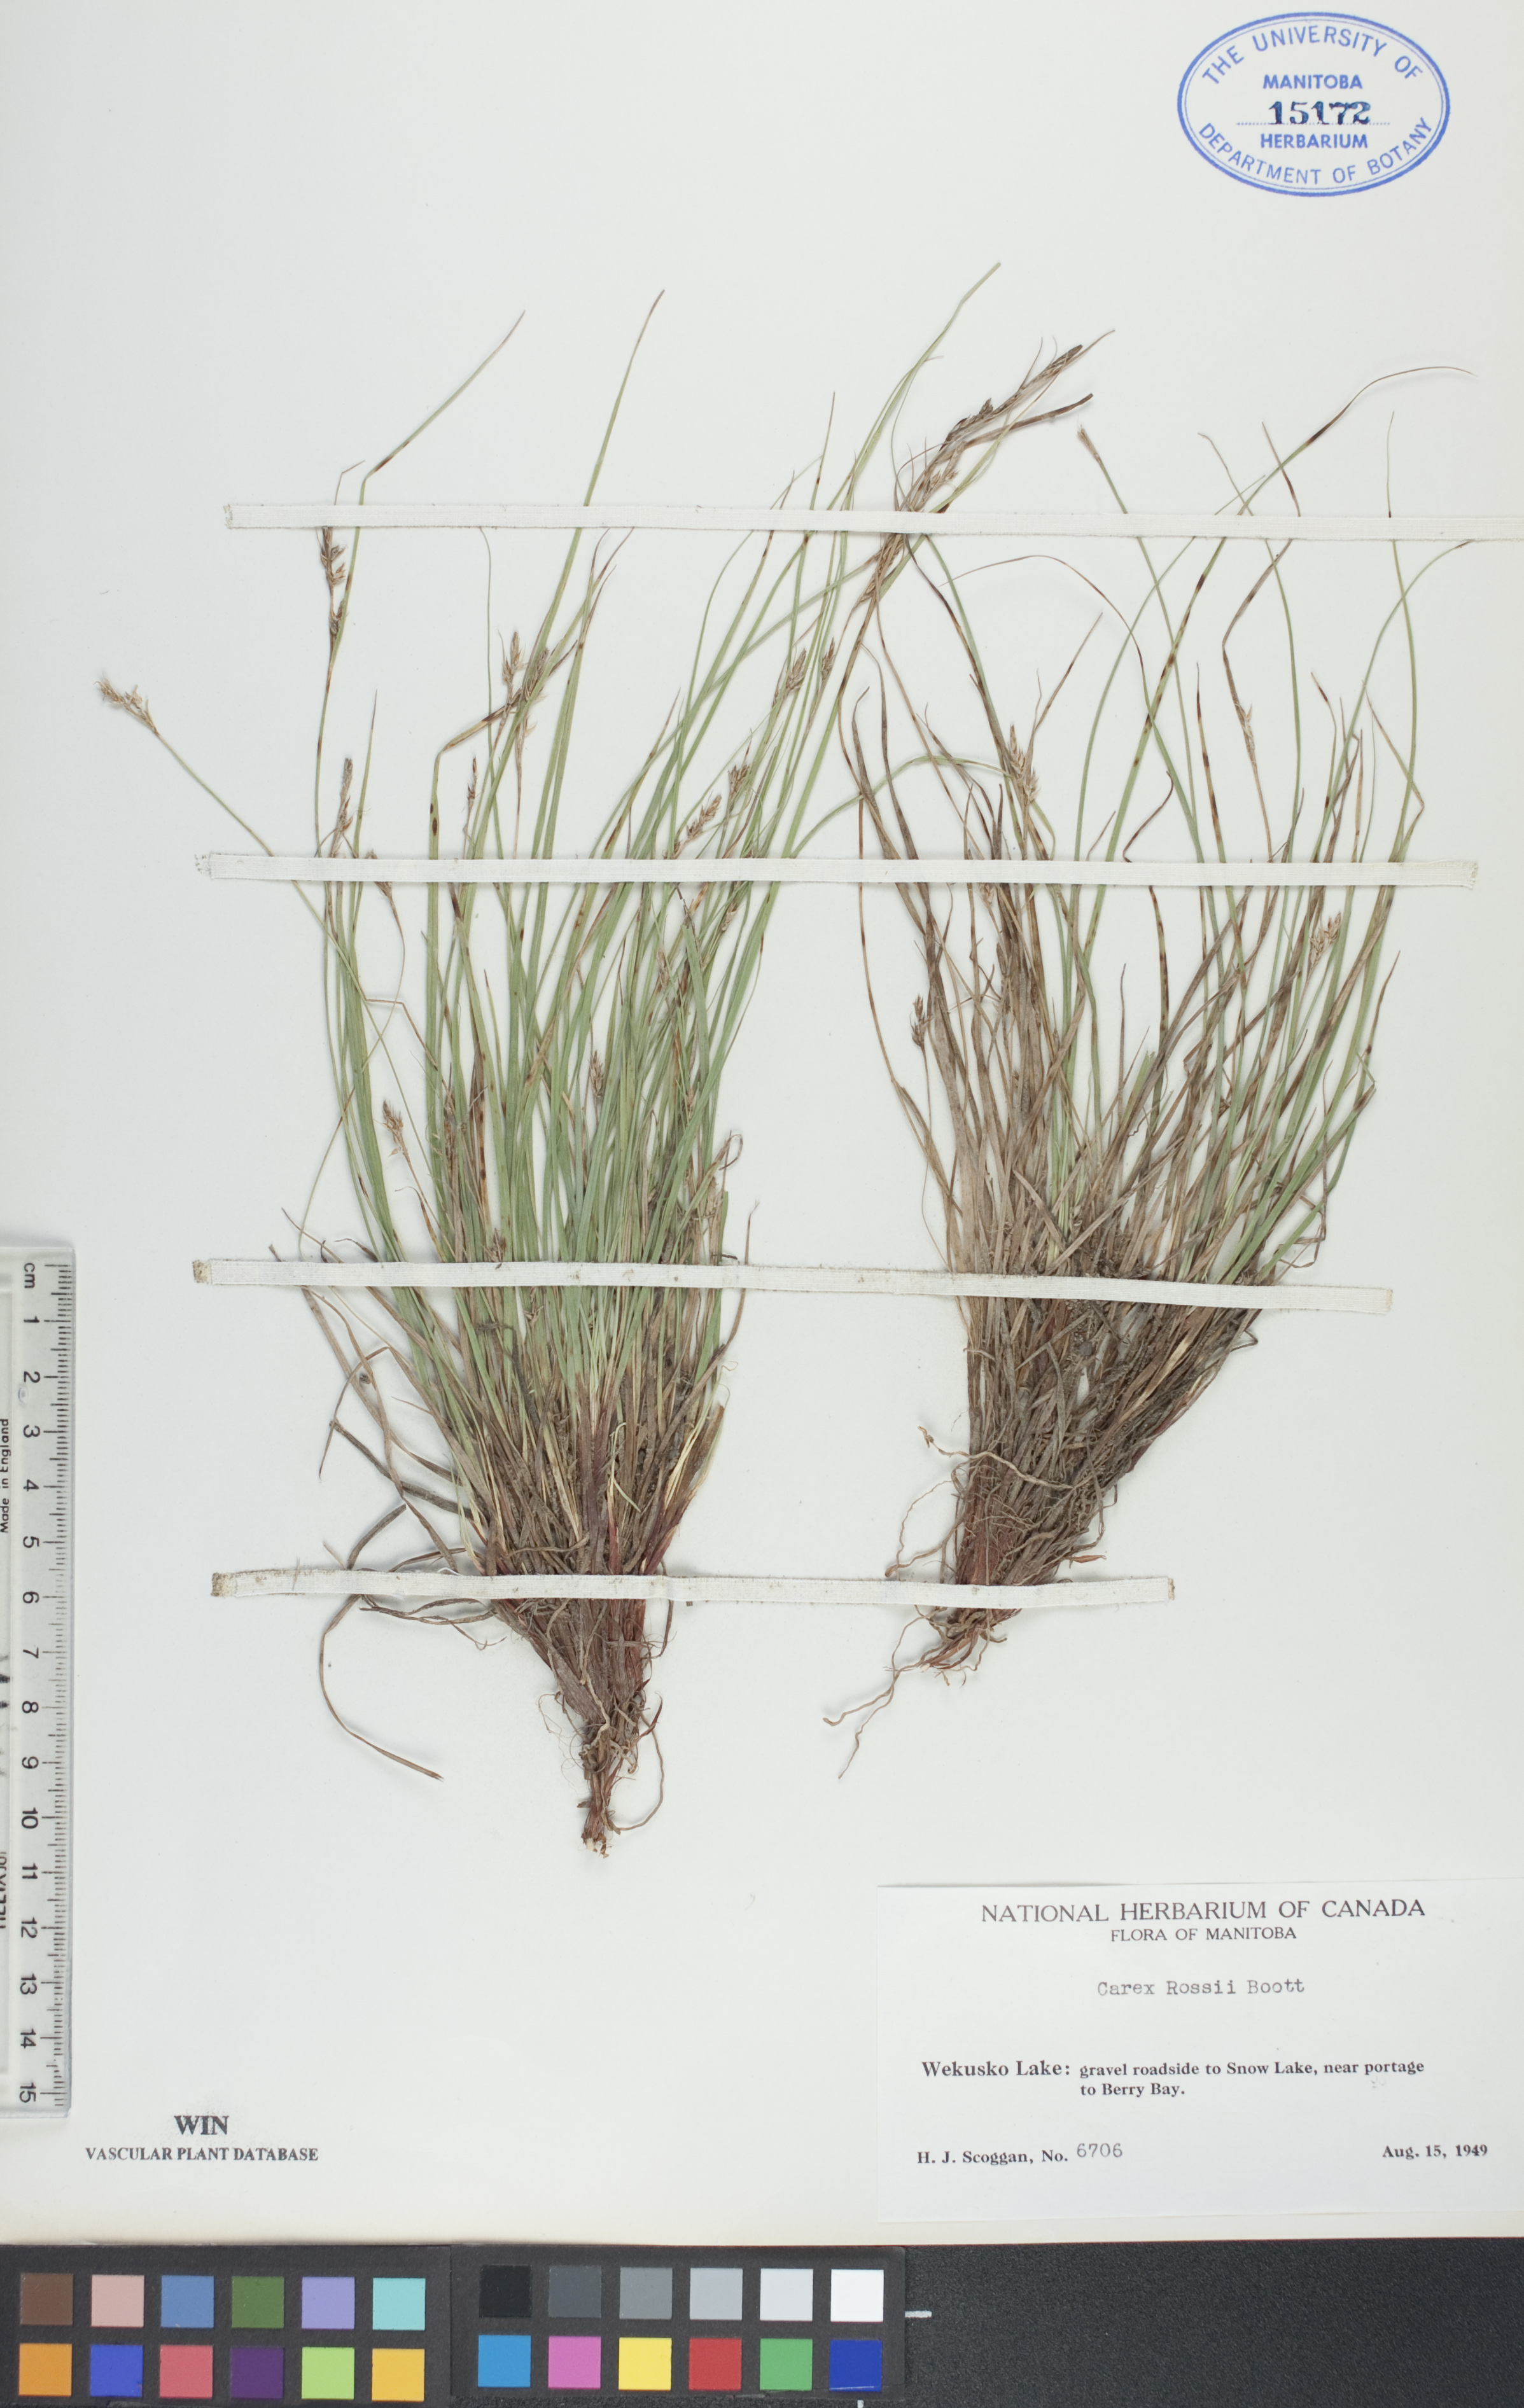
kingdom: Plantae
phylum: Tracheophyta
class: Liliopsida
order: Poales
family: Cyperaceae
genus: Carex
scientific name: Carex rossii
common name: Ross' sedge
